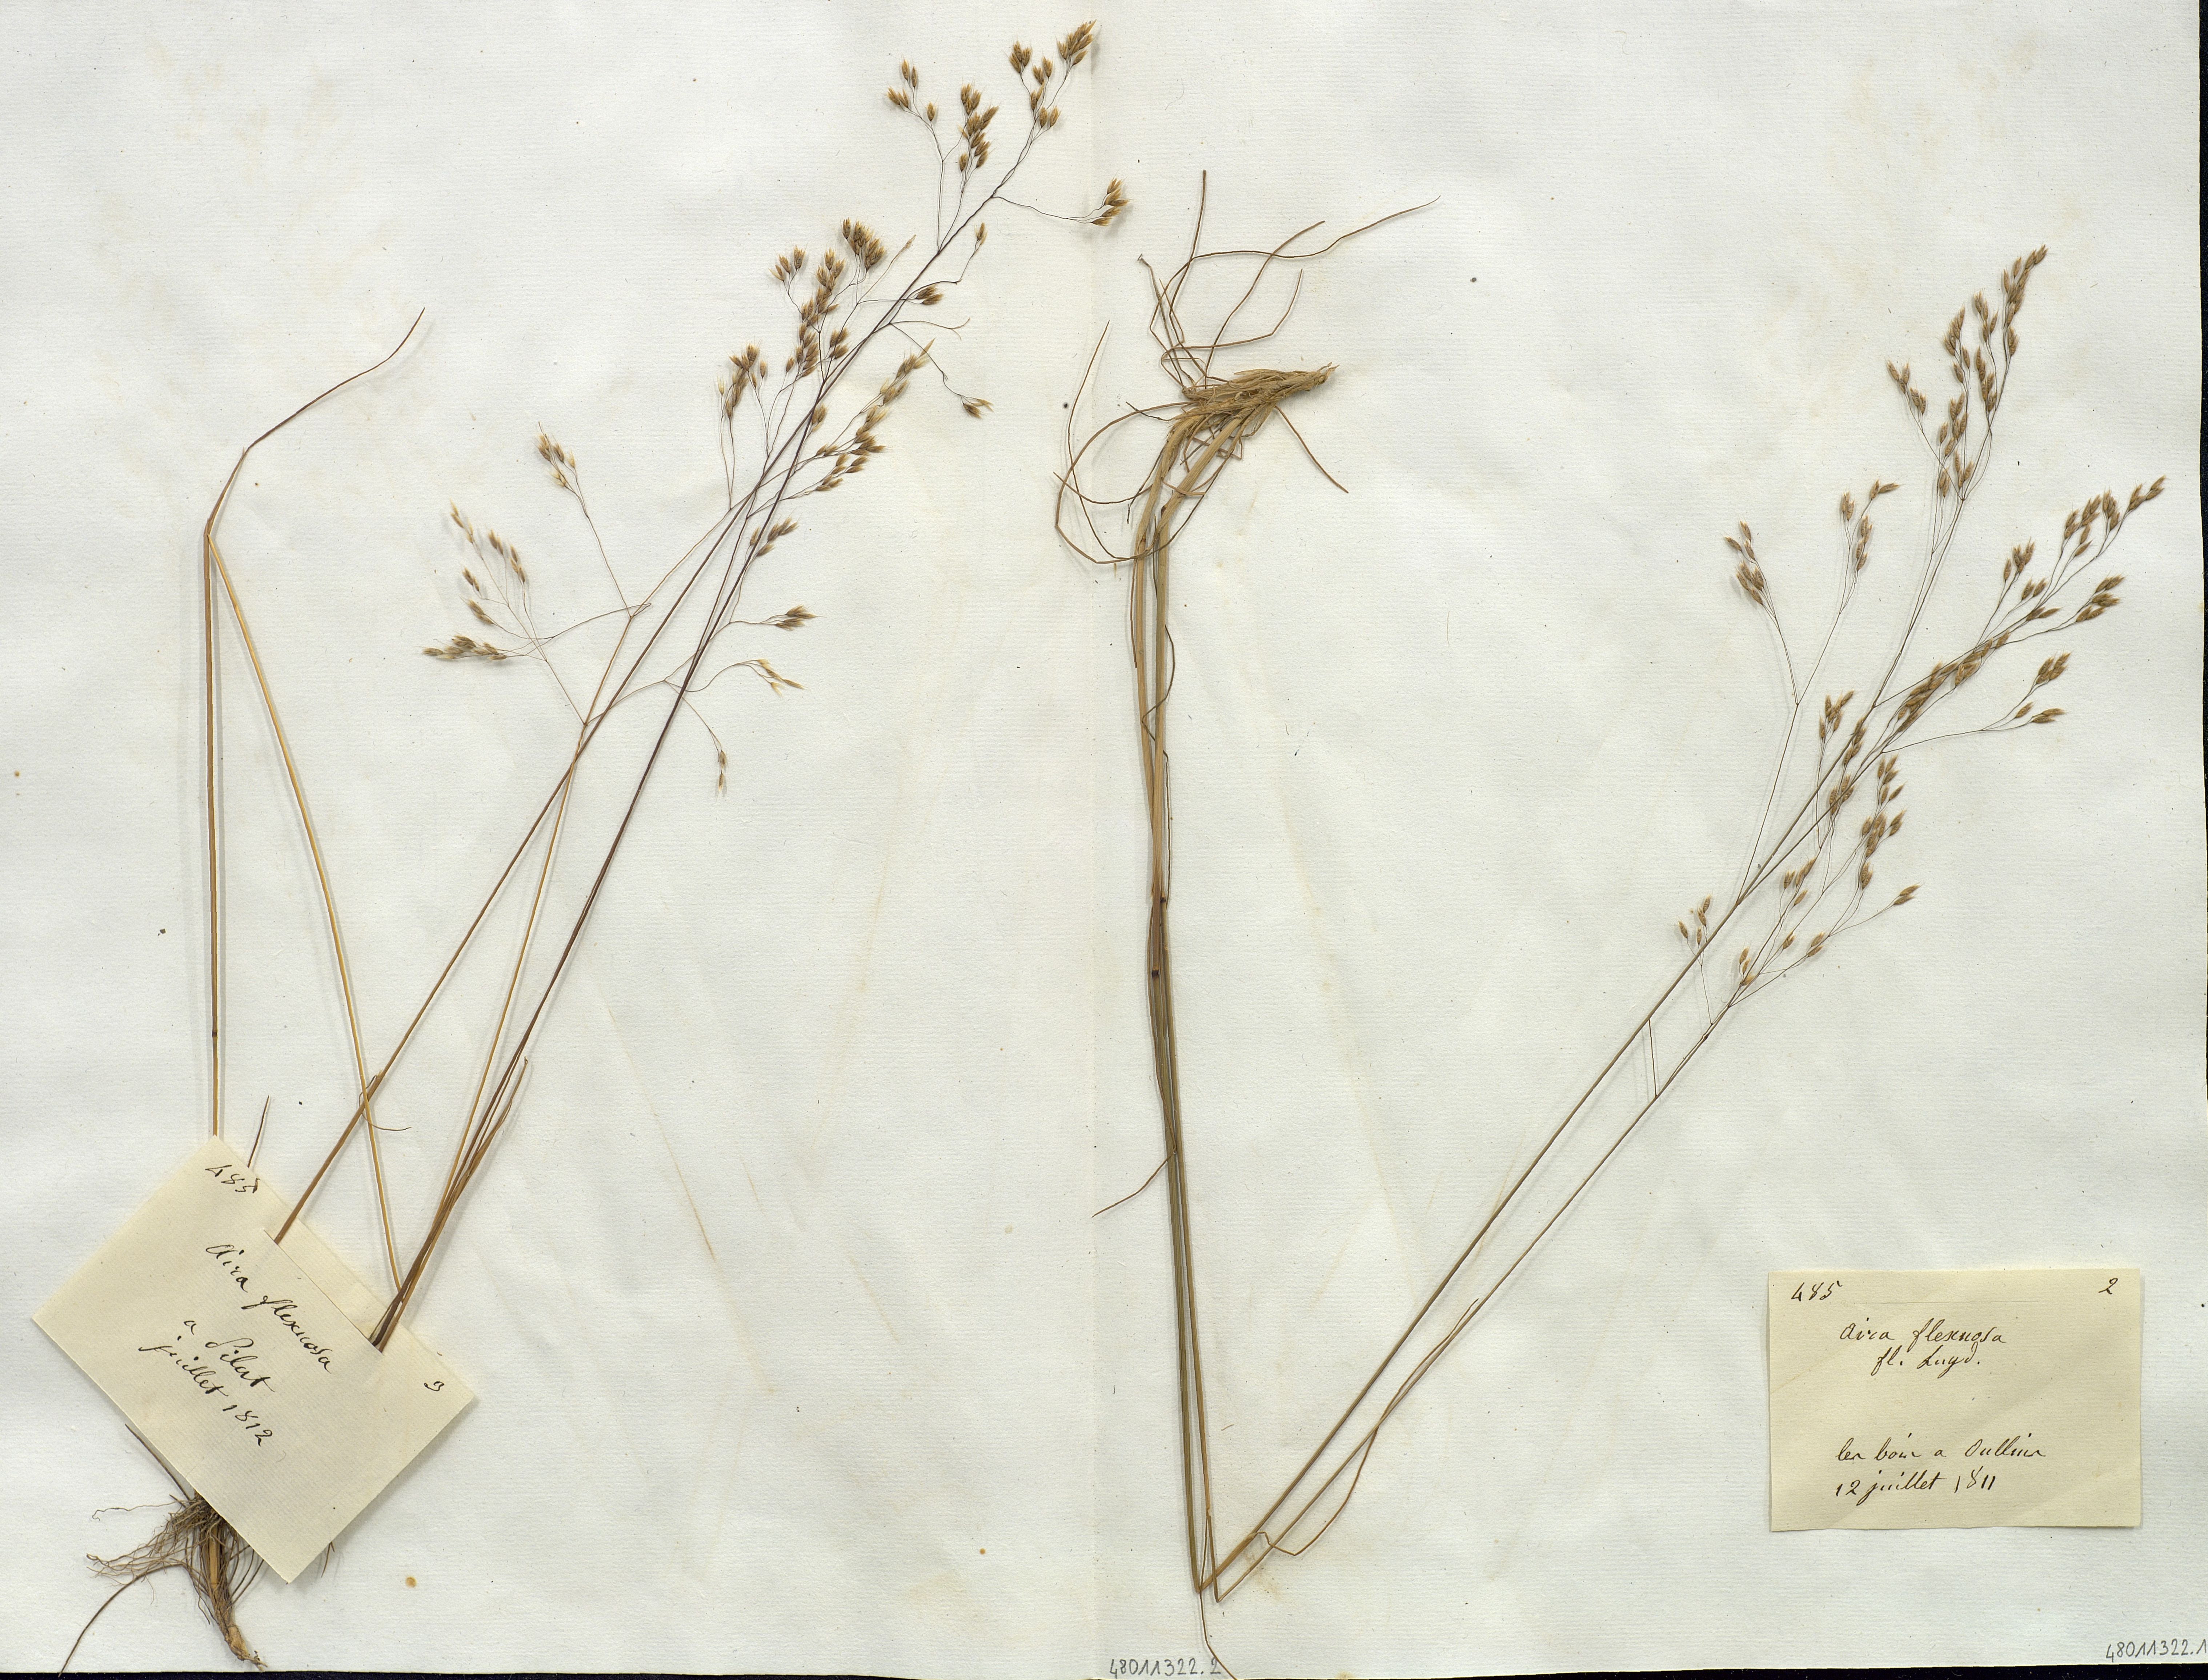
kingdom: Plantae
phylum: Tracheophyta
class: Liliopsida
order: Poales
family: Poaceae
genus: Avenella
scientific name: Avenella flexuosa
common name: Wavy hairgrass
